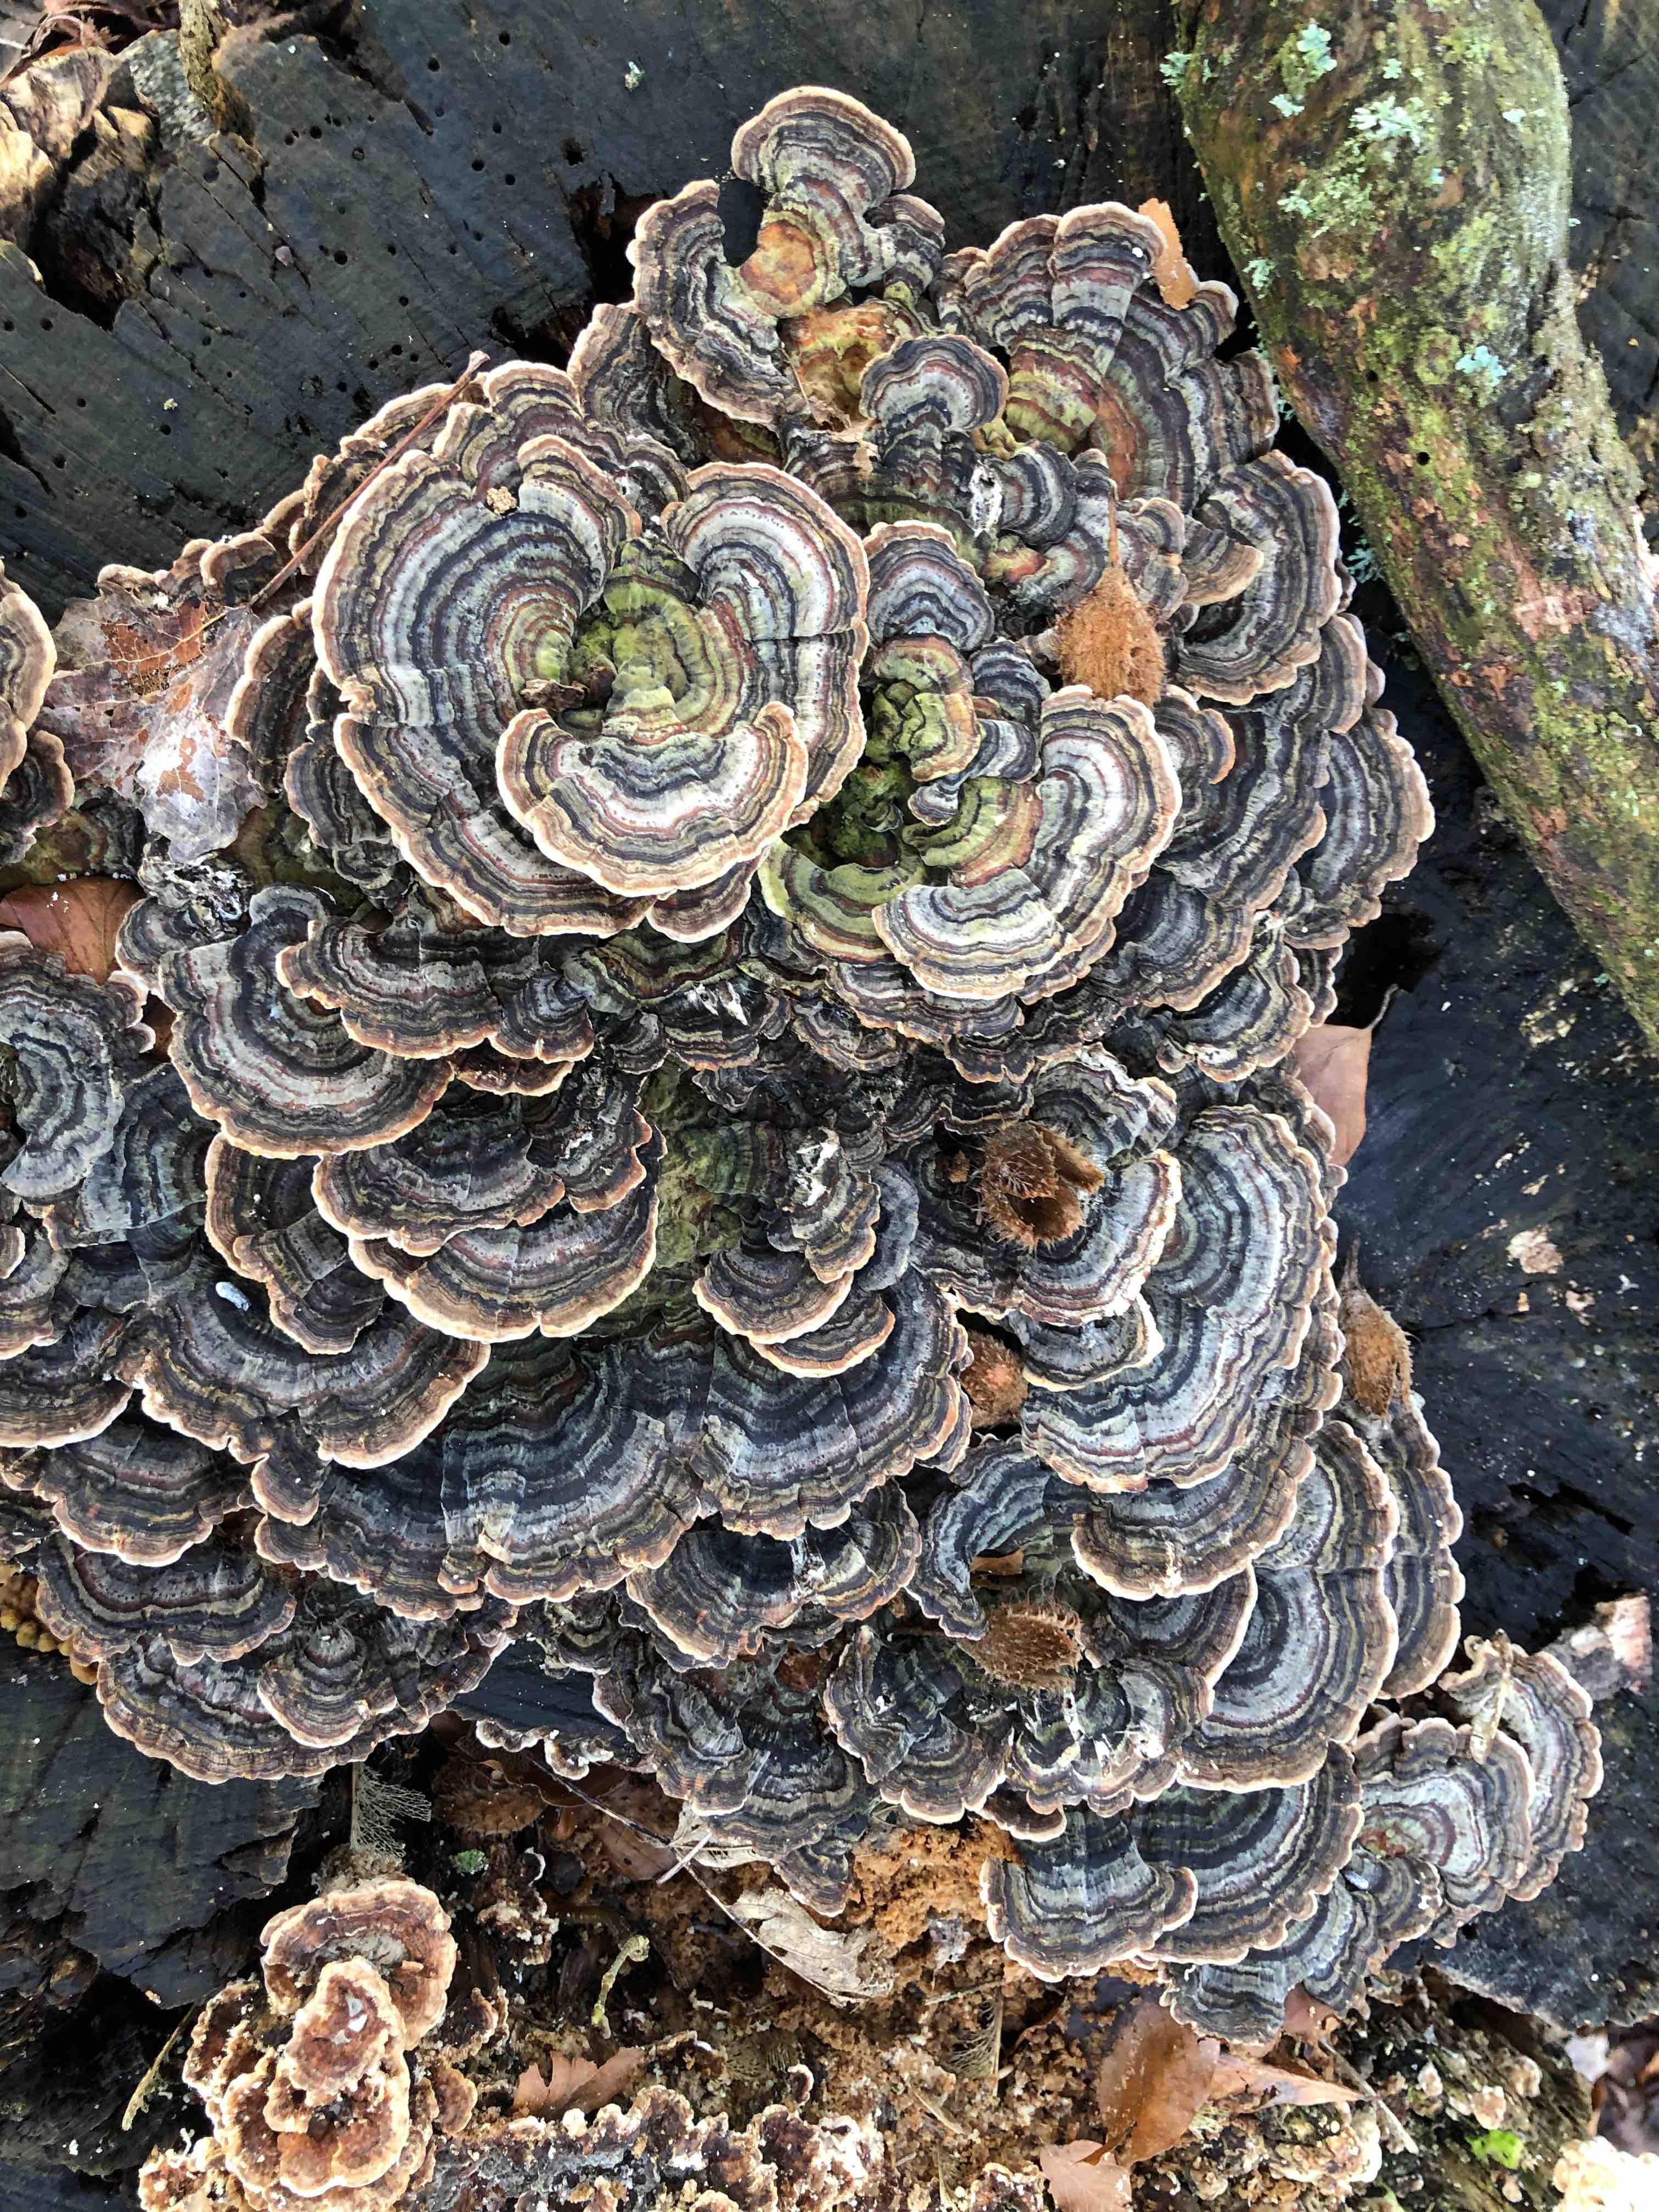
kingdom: Fungi
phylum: Basidiomycota
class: Agaricomycetes
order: Polyporales
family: Polyporaceae
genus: Trametes
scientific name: Trametes versicolor
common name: broget læderporesvamp
